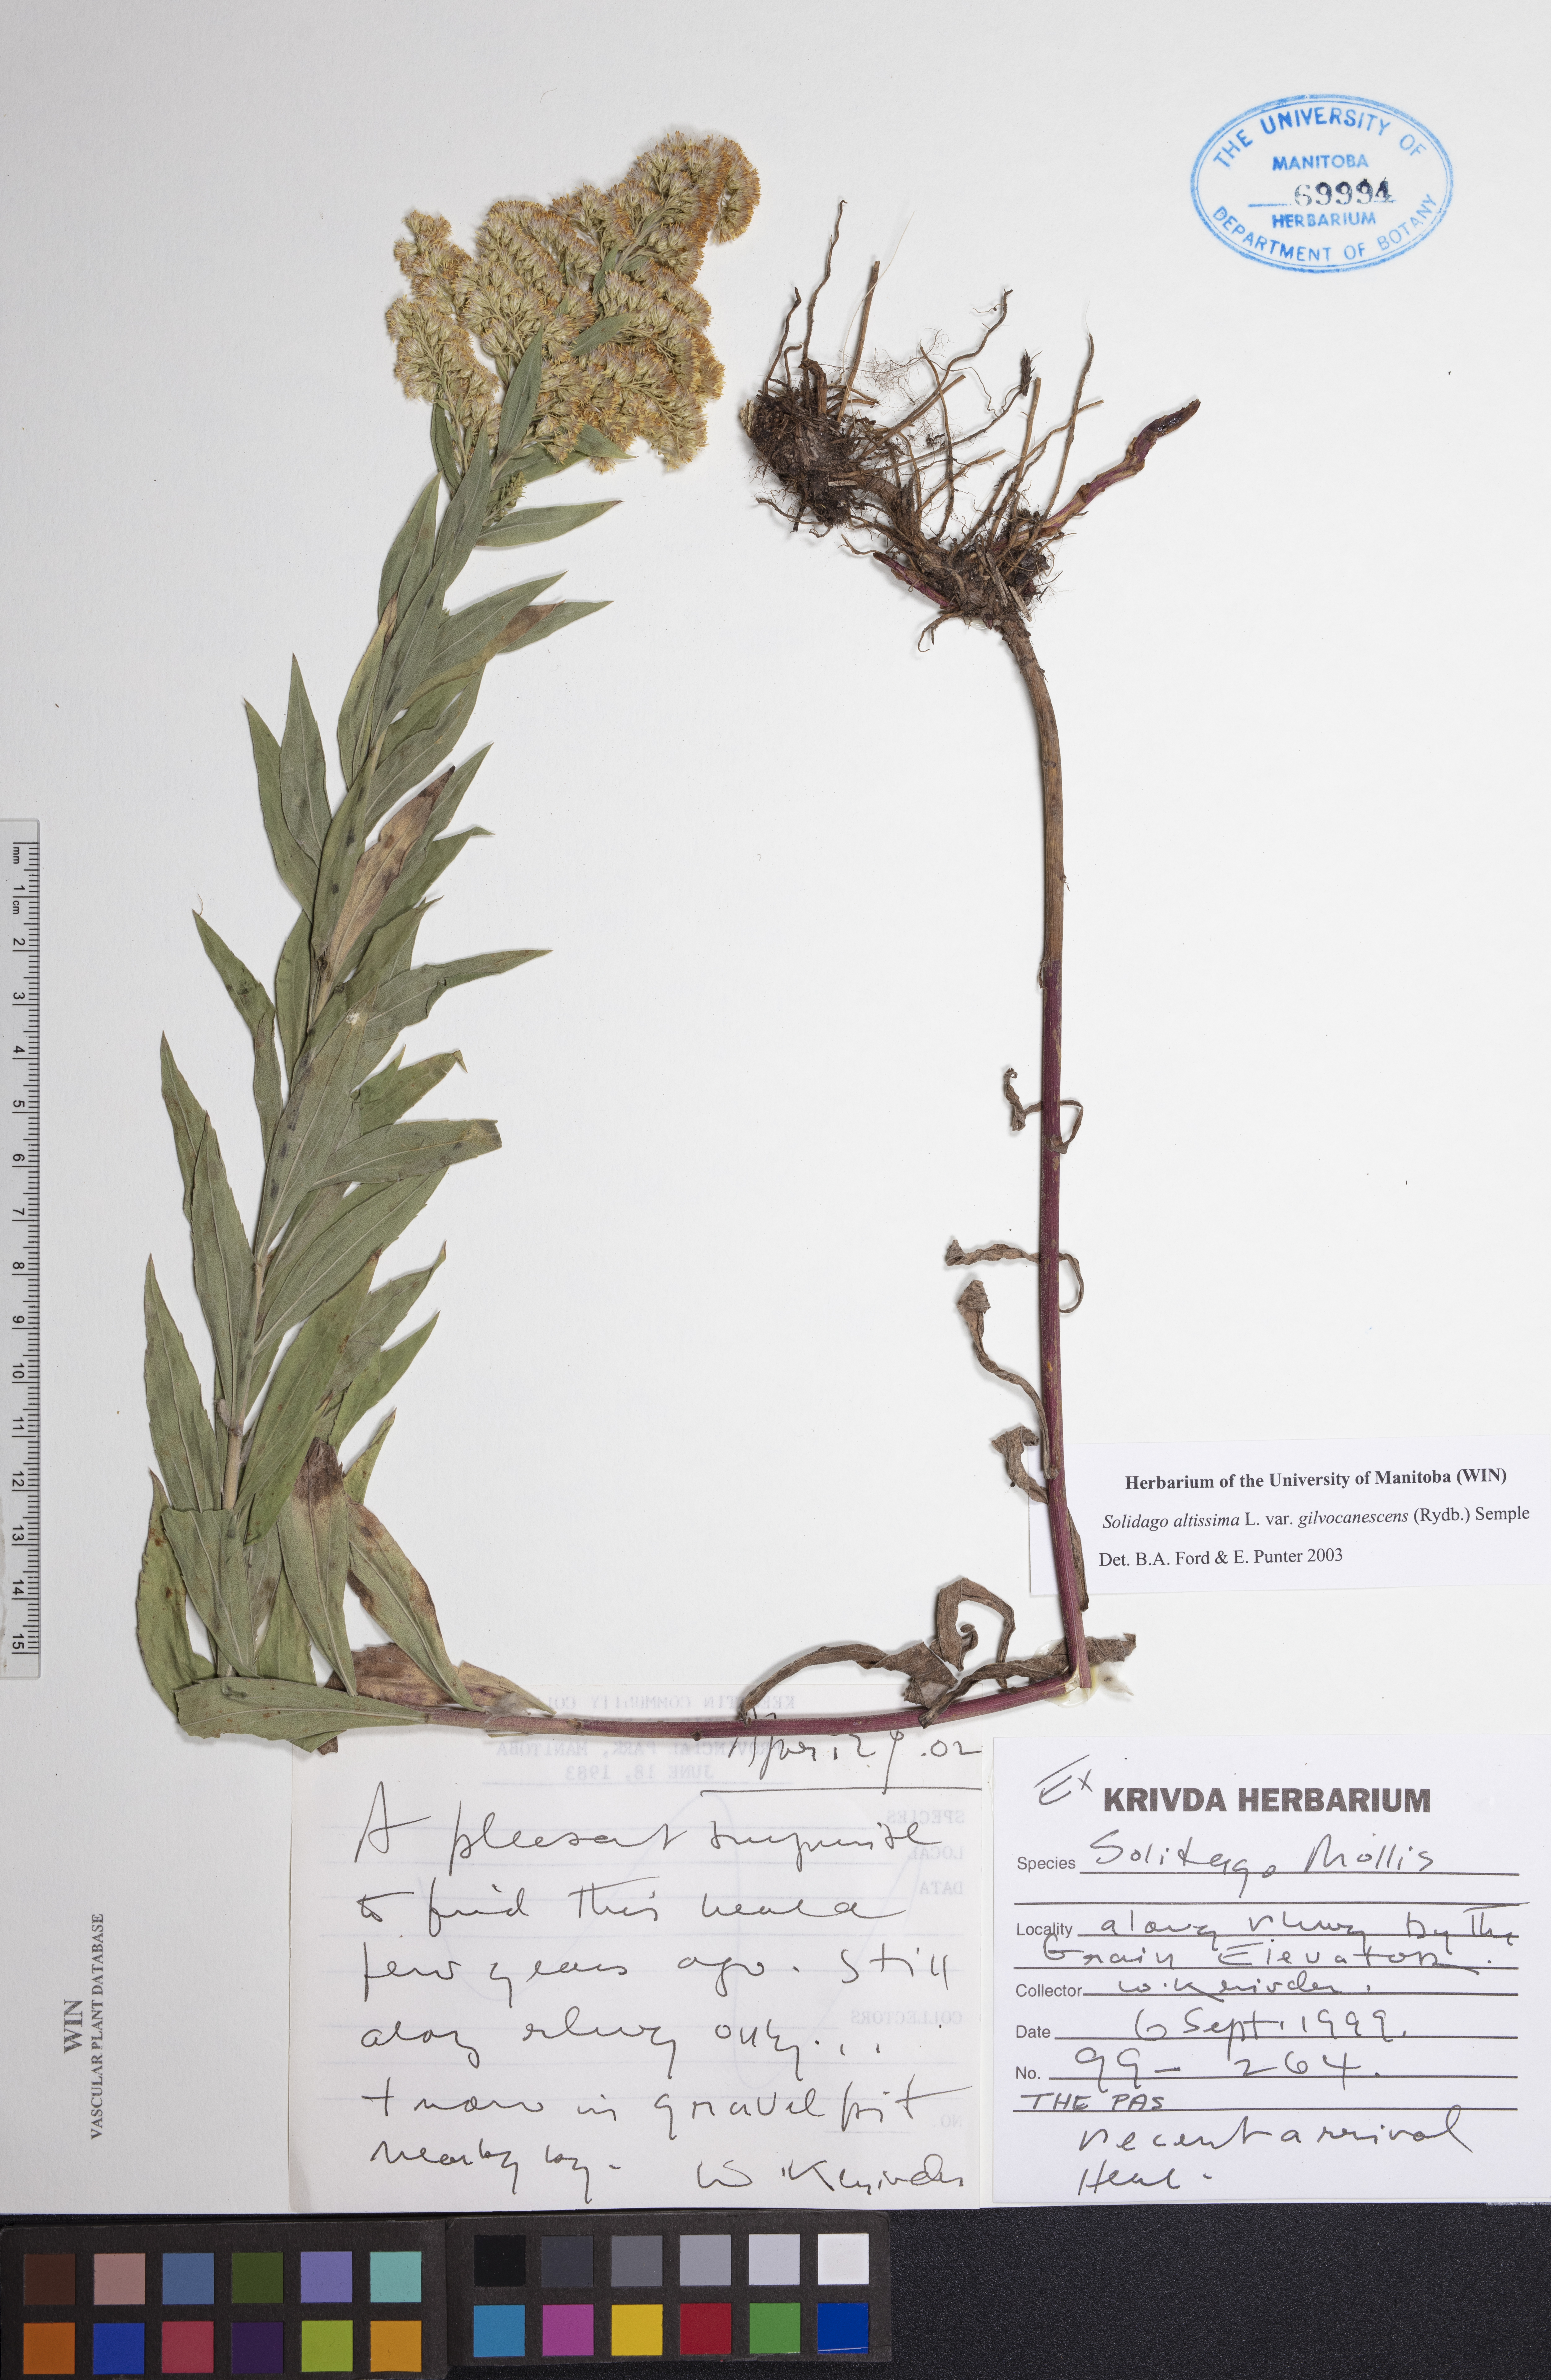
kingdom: Plantae
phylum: Tracheophyta
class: Magnoliopsida
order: Asterales
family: Asteraceae
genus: Solidago
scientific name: Solidago altissima
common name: Late goldenrod
